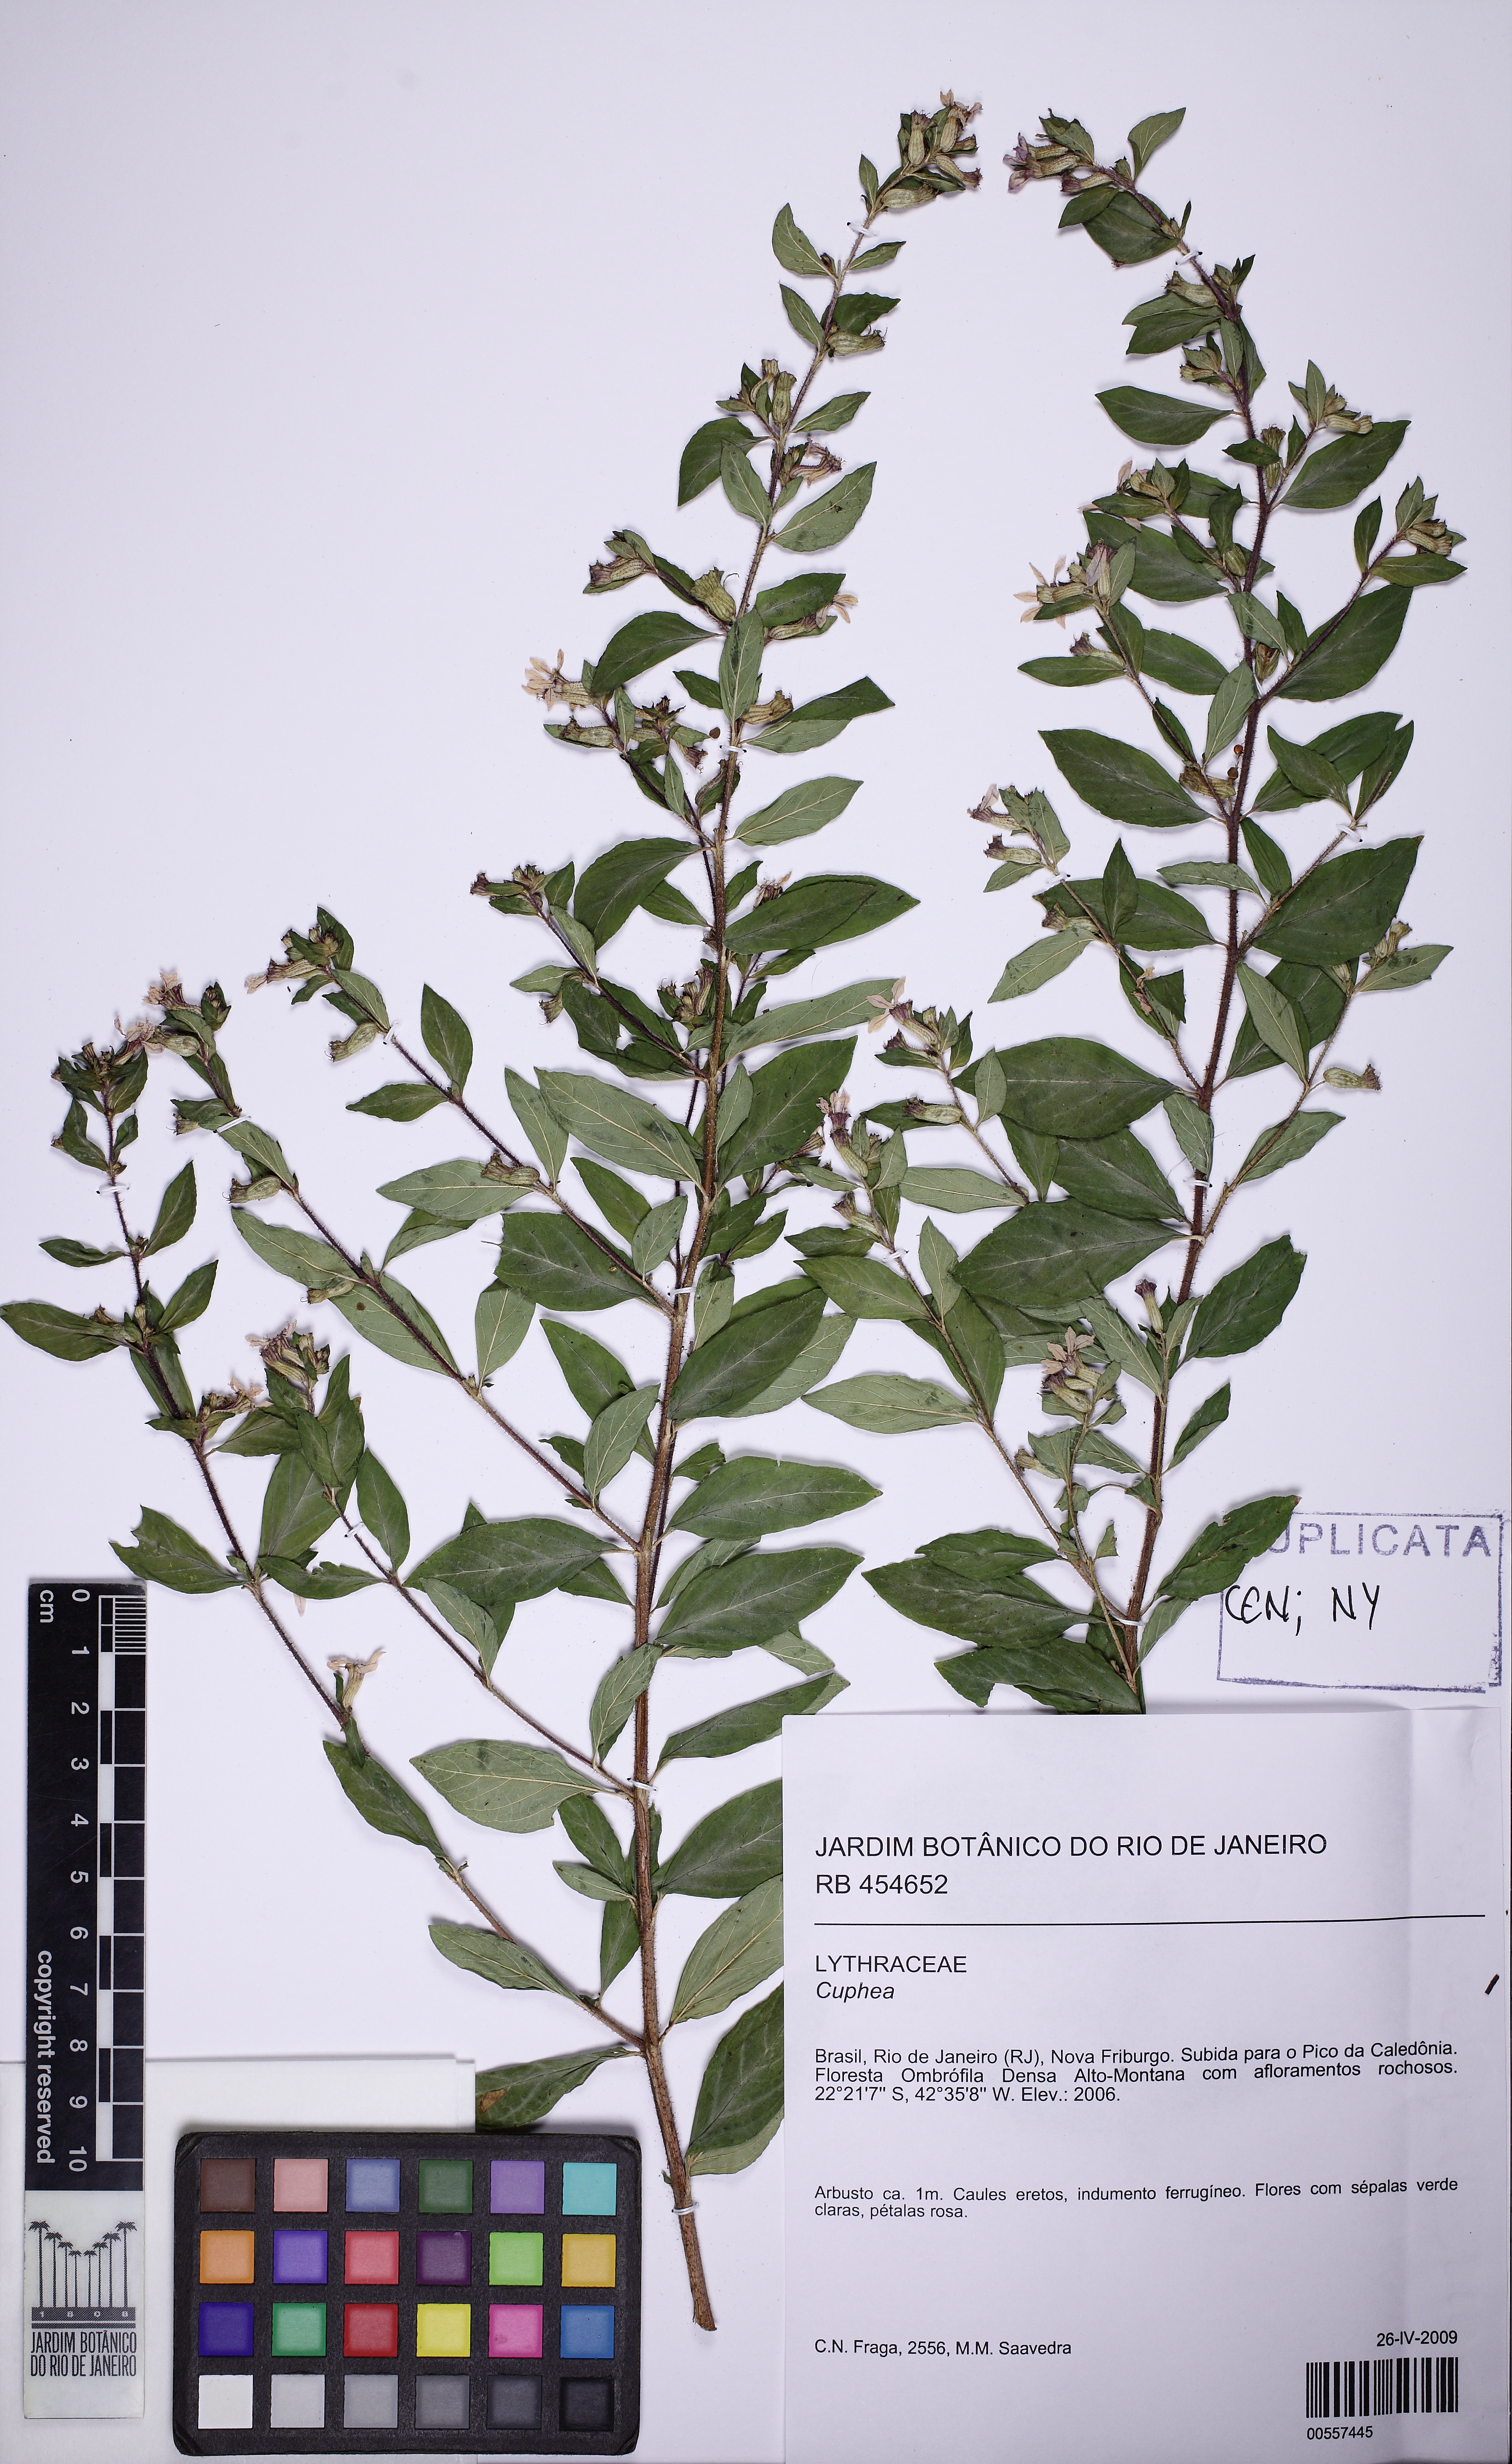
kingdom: Plantae
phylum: Tracheophyta
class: Magnoliopsida
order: Myrtales
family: Lythraceae
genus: Cuphea
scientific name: Cuphea ingrata
